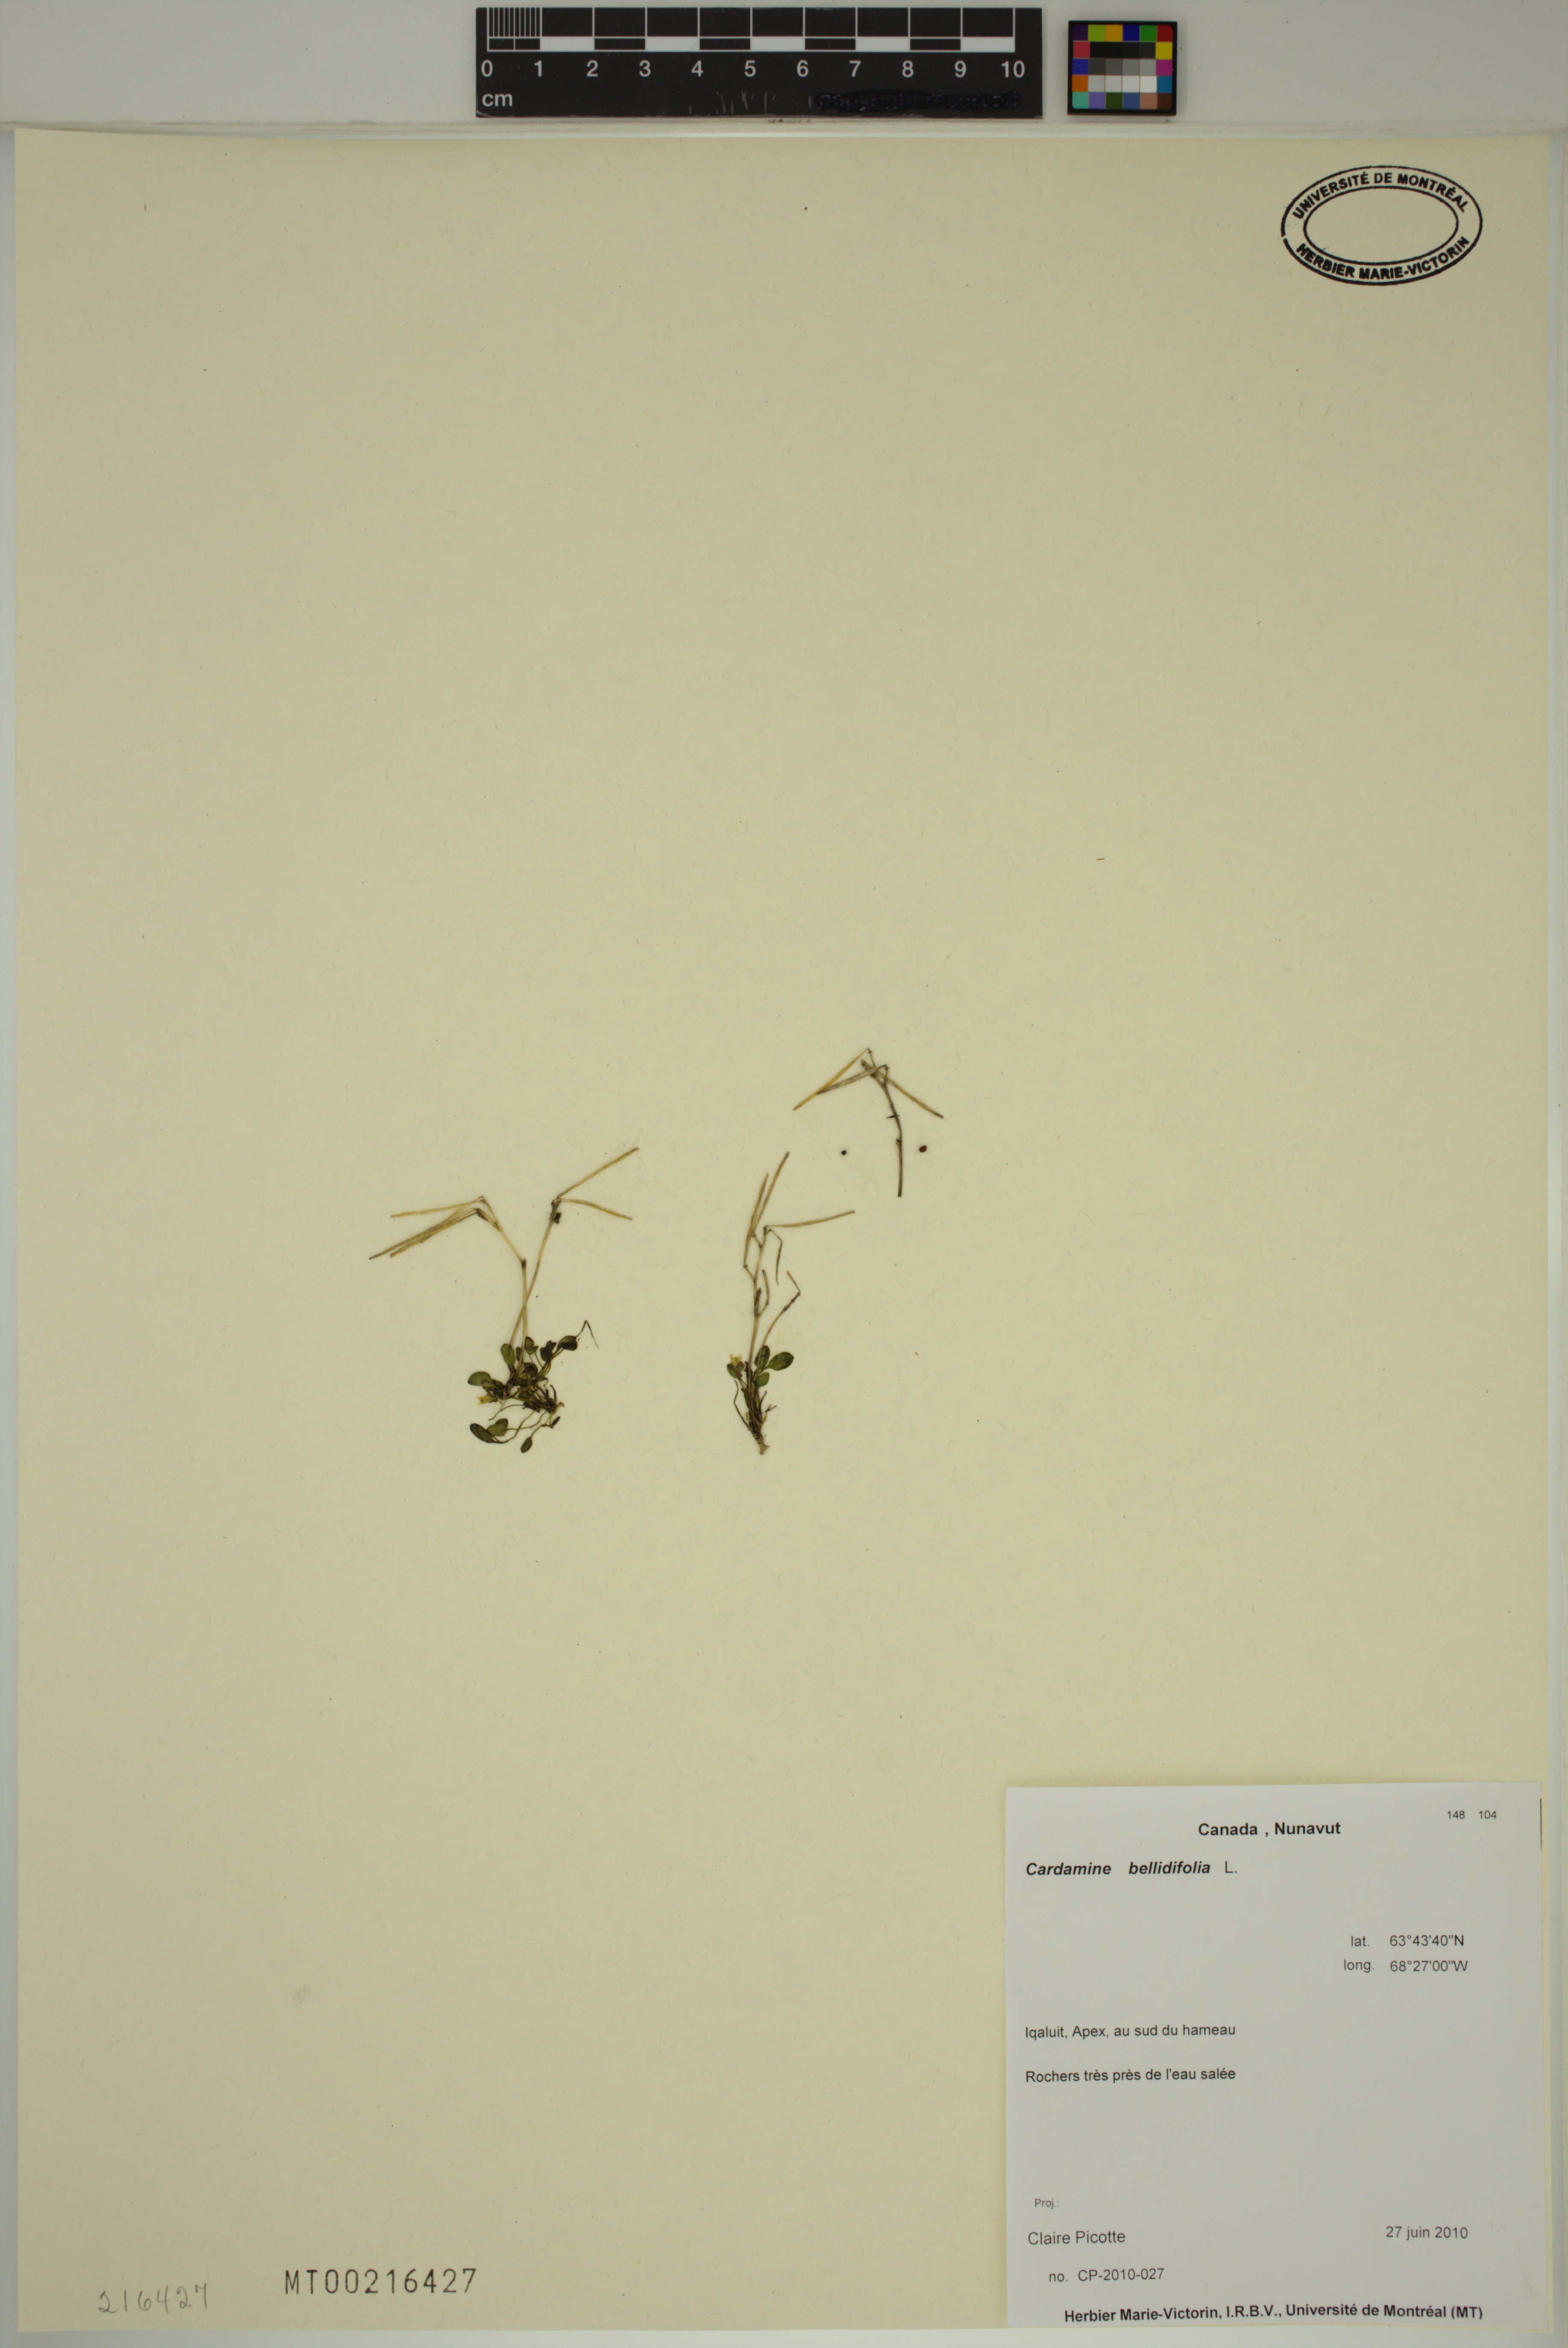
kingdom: Plantae
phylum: Tracheophyta
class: Magnoliopsida
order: Brassicales
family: Brassicaceae
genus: Cardamine
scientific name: Cardamine bellidifolia
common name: Alpine bittercress
